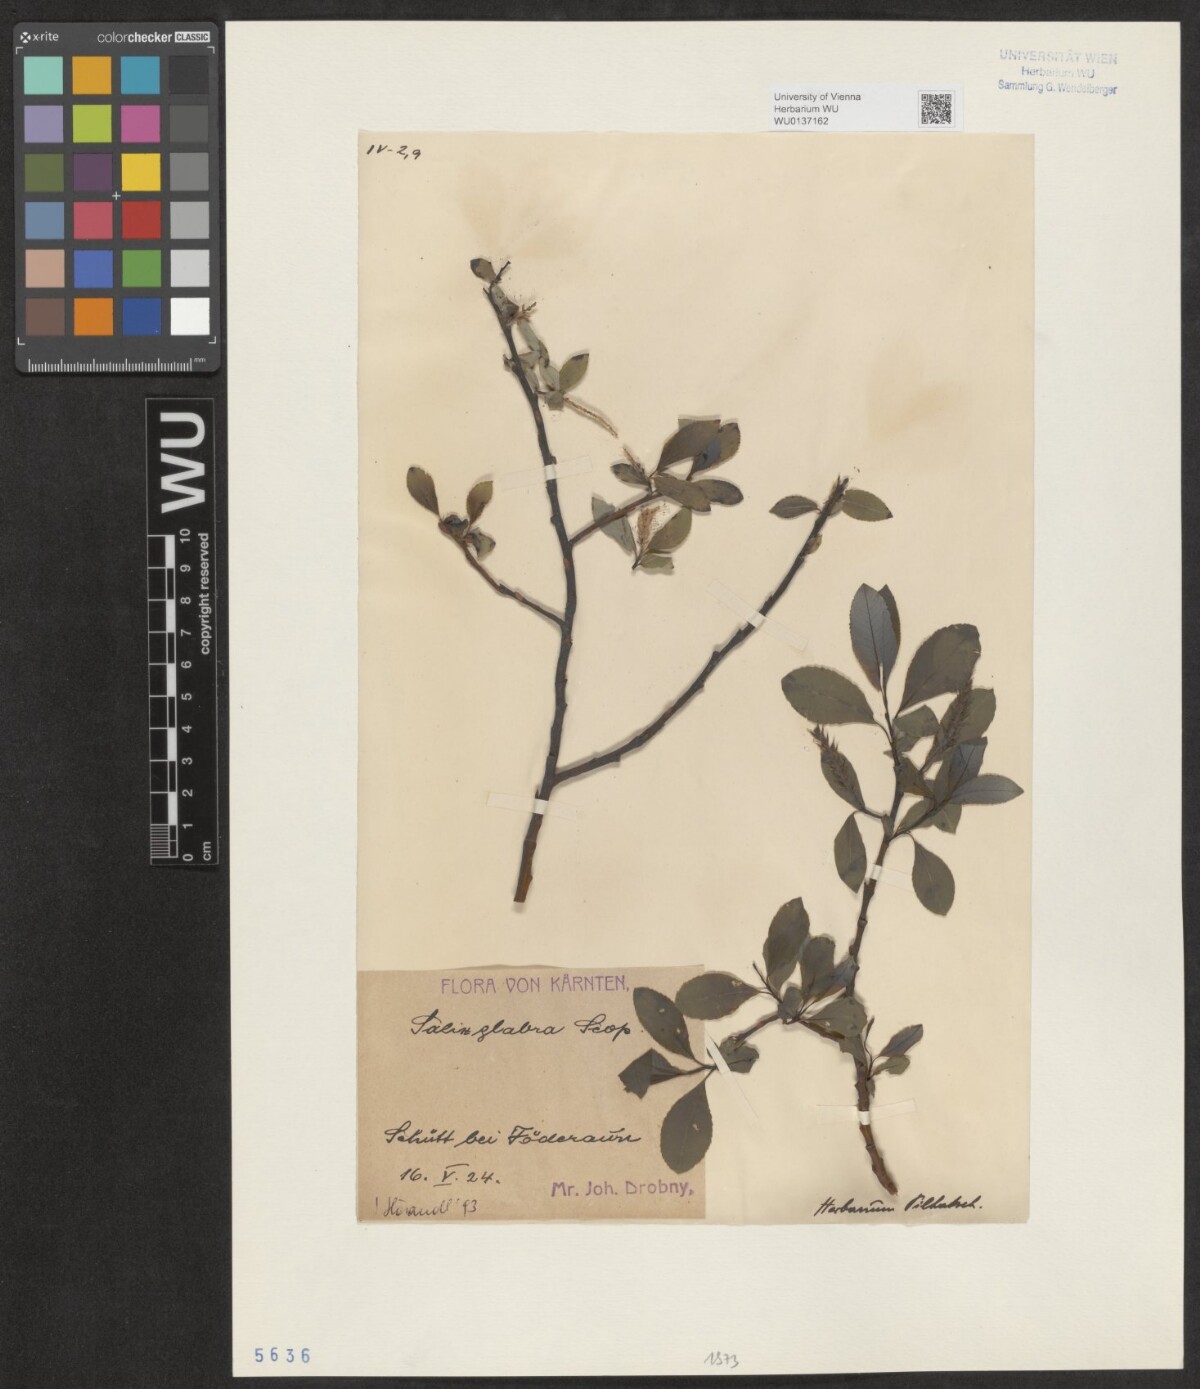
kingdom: Plantae
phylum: Tracheophyta
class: Magnoliopsida
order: Malpighiales
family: Salicaceae
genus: Salix
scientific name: Salix glabra
